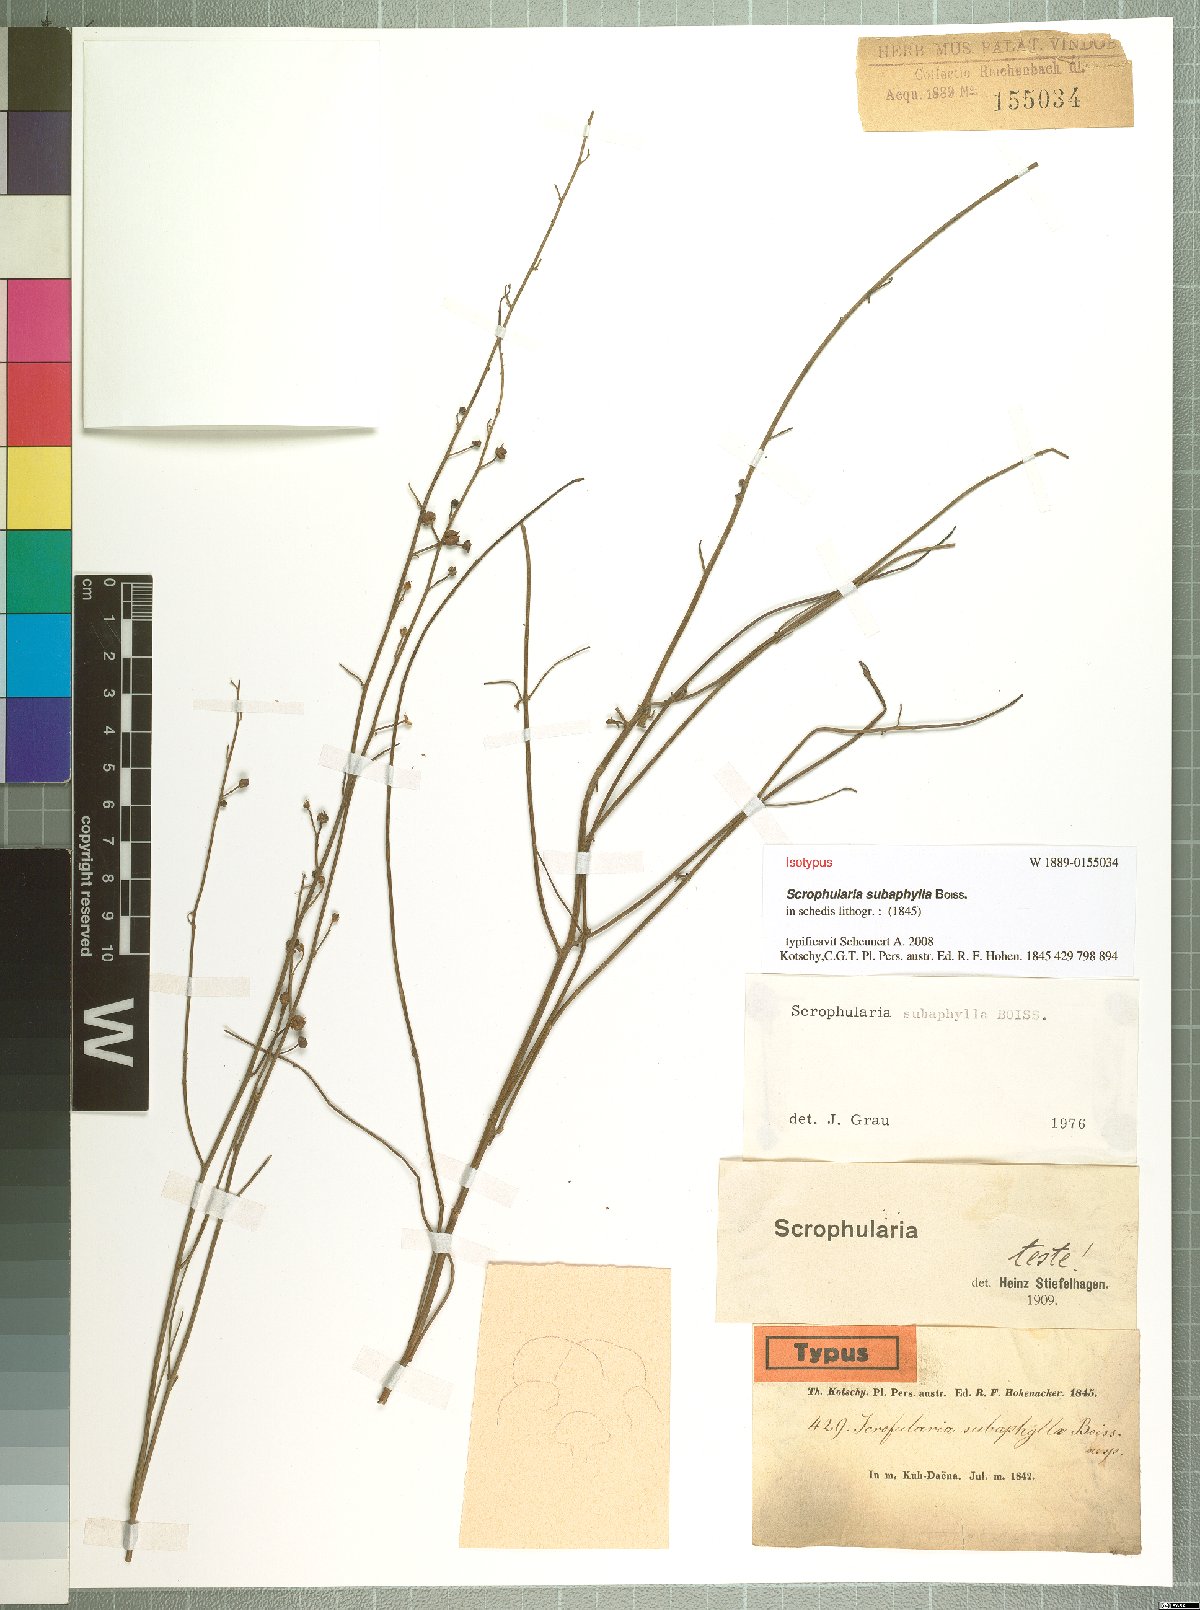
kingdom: Plantae
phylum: Tracheophyta
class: Magnoliopsida
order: Lamiales
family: Scrophulariaceae
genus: Scrophularia
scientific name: Scrophularia subaphylla
